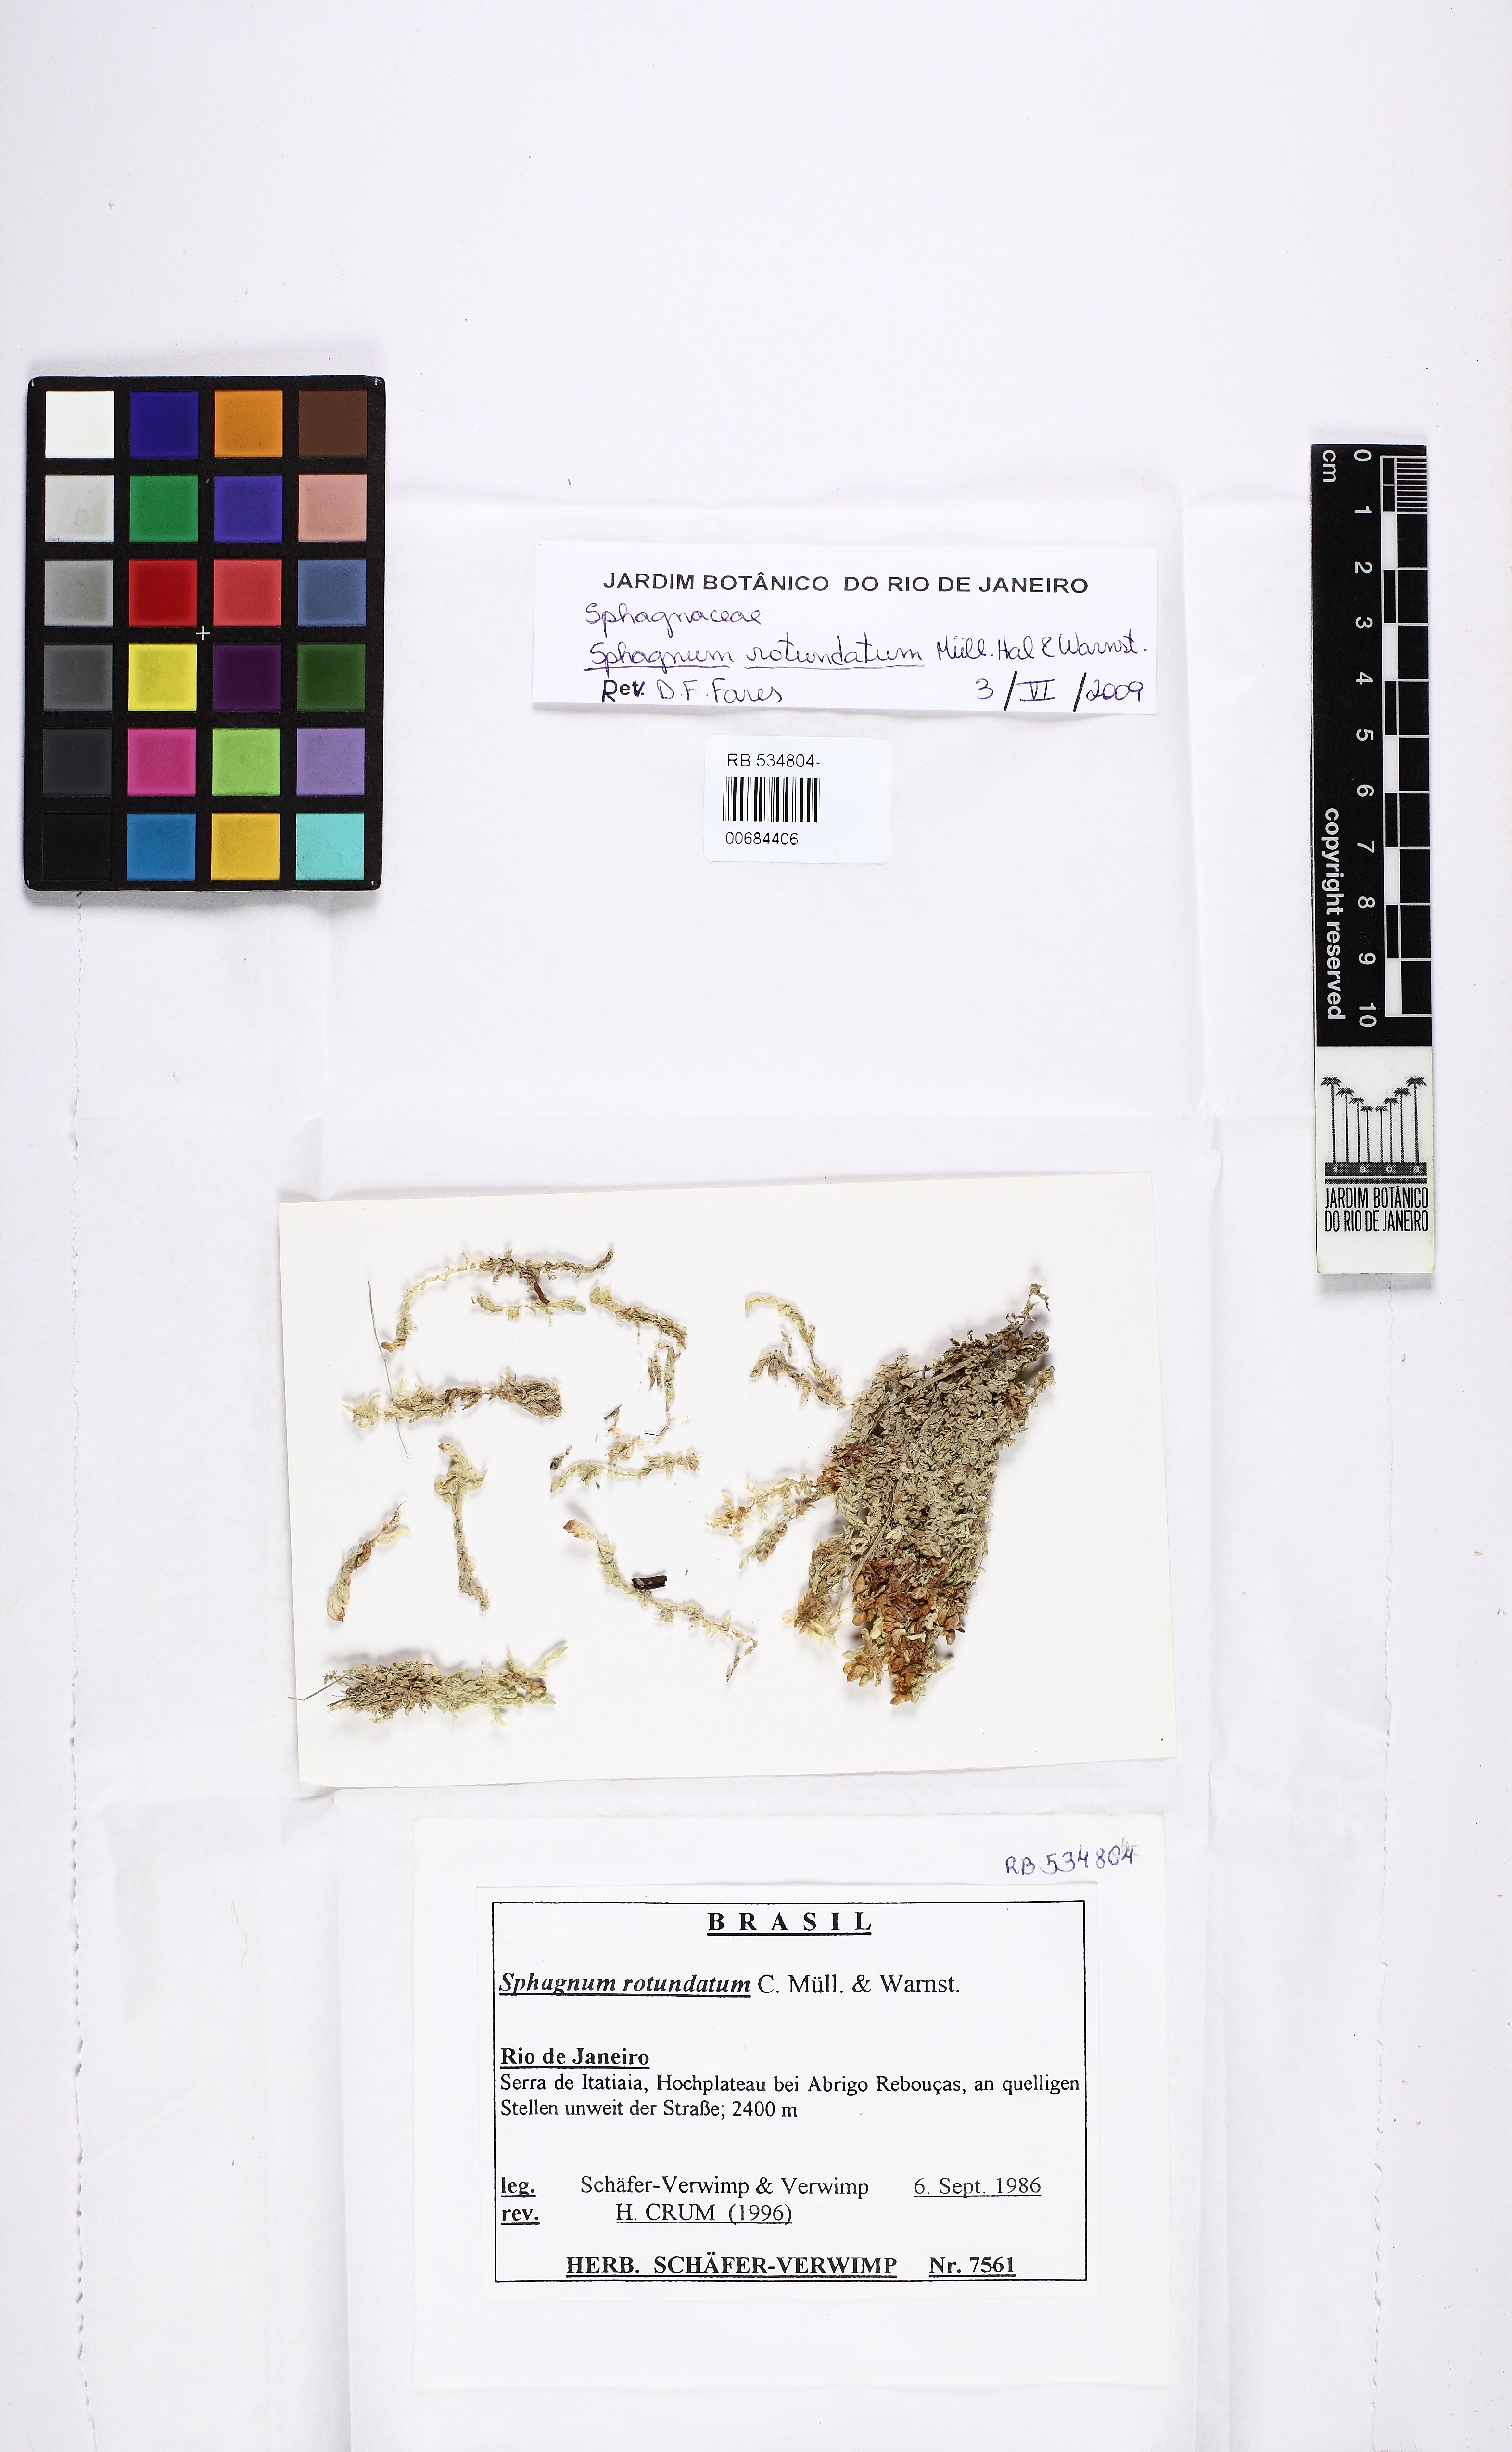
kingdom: Plantae
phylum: Bryophyta
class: Sphagnopsida
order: Sphagnales
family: Sphagnaceae
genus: Sphagnum
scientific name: Sphagnum rotundatum
